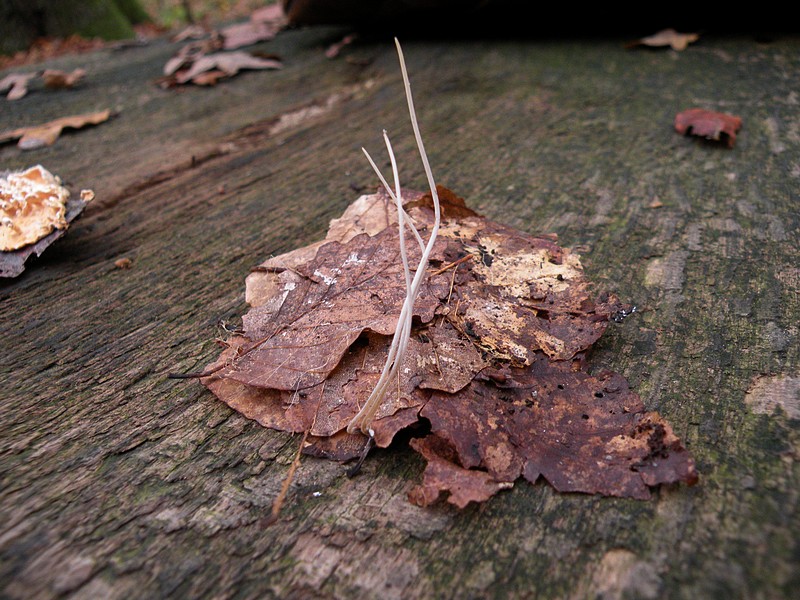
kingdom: Fungi
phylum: Basidiomycota
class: Agaricomycetes
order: Agaricales
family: Typhulaceae
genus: Typhula
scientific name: Typhula juncea
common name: trådagtig rørkølle
